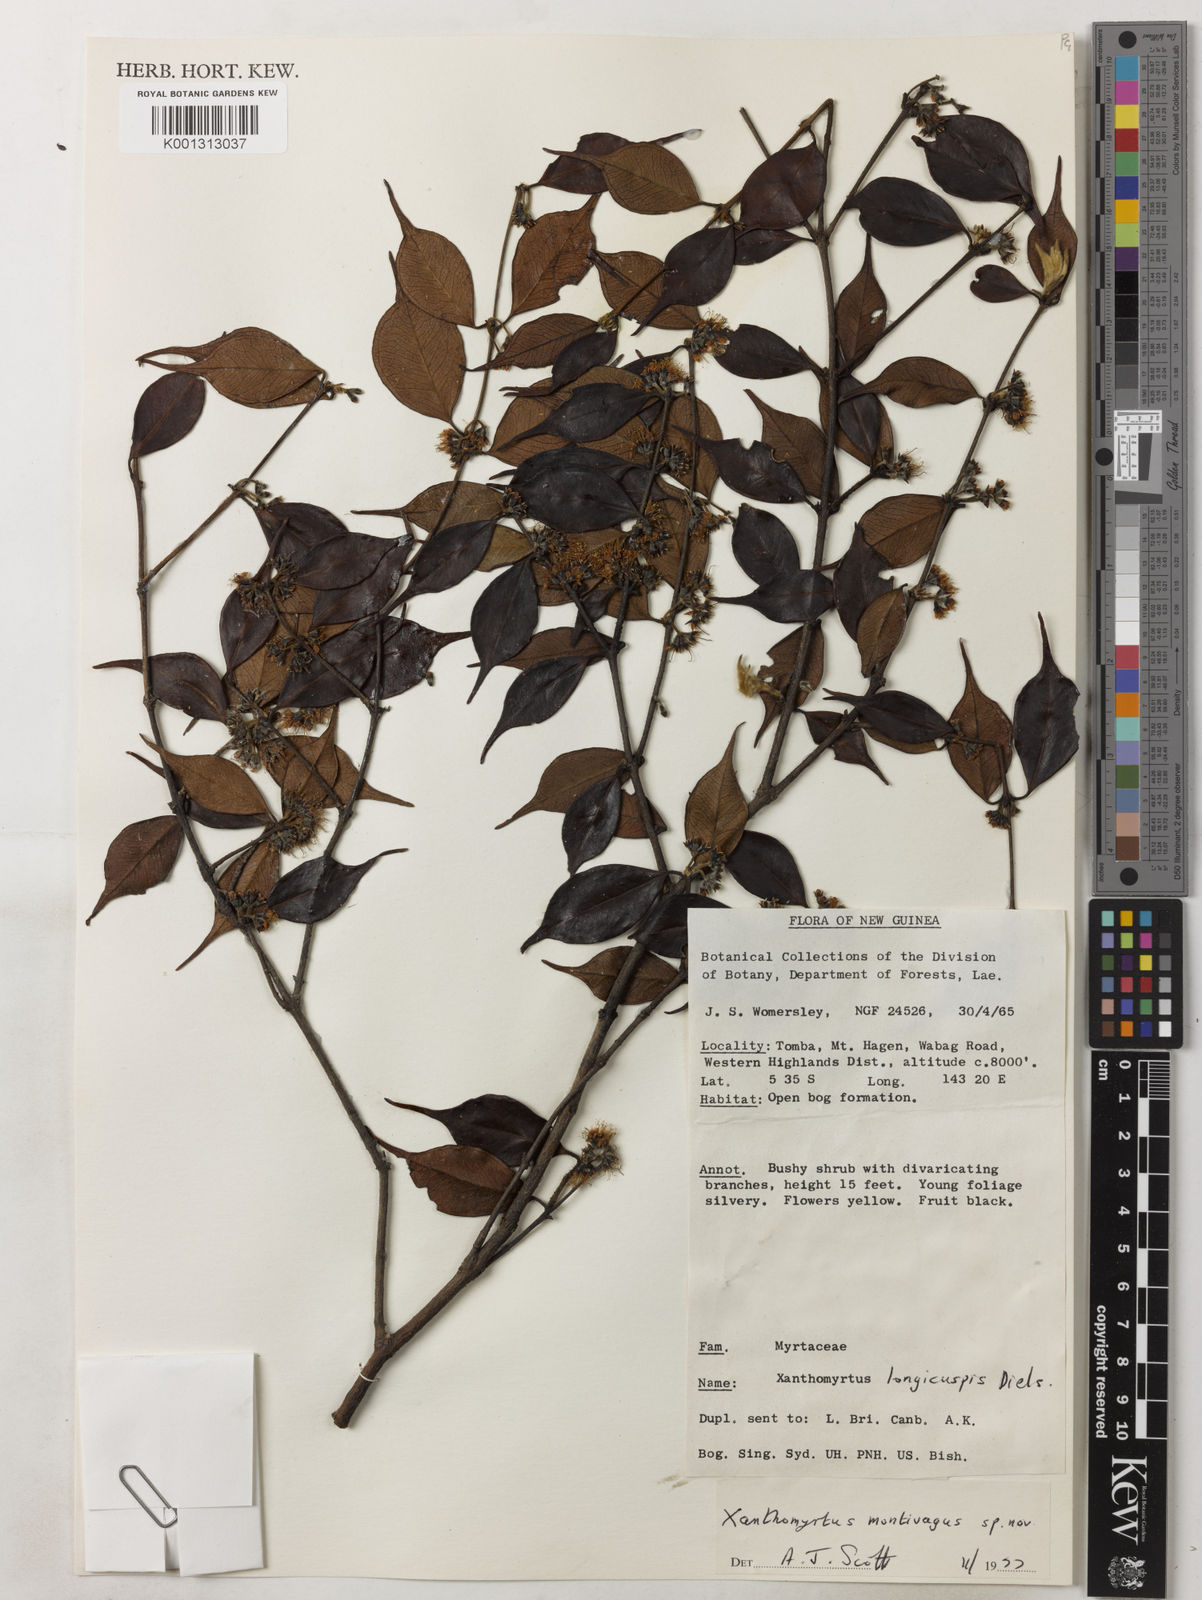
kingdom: Plantae
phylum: Tracheophyta
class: Magnoliopsida
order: Myrtales
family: Myrtaceae
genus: Xanthomyrtus
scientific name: Xanthomyrtus montivaga
